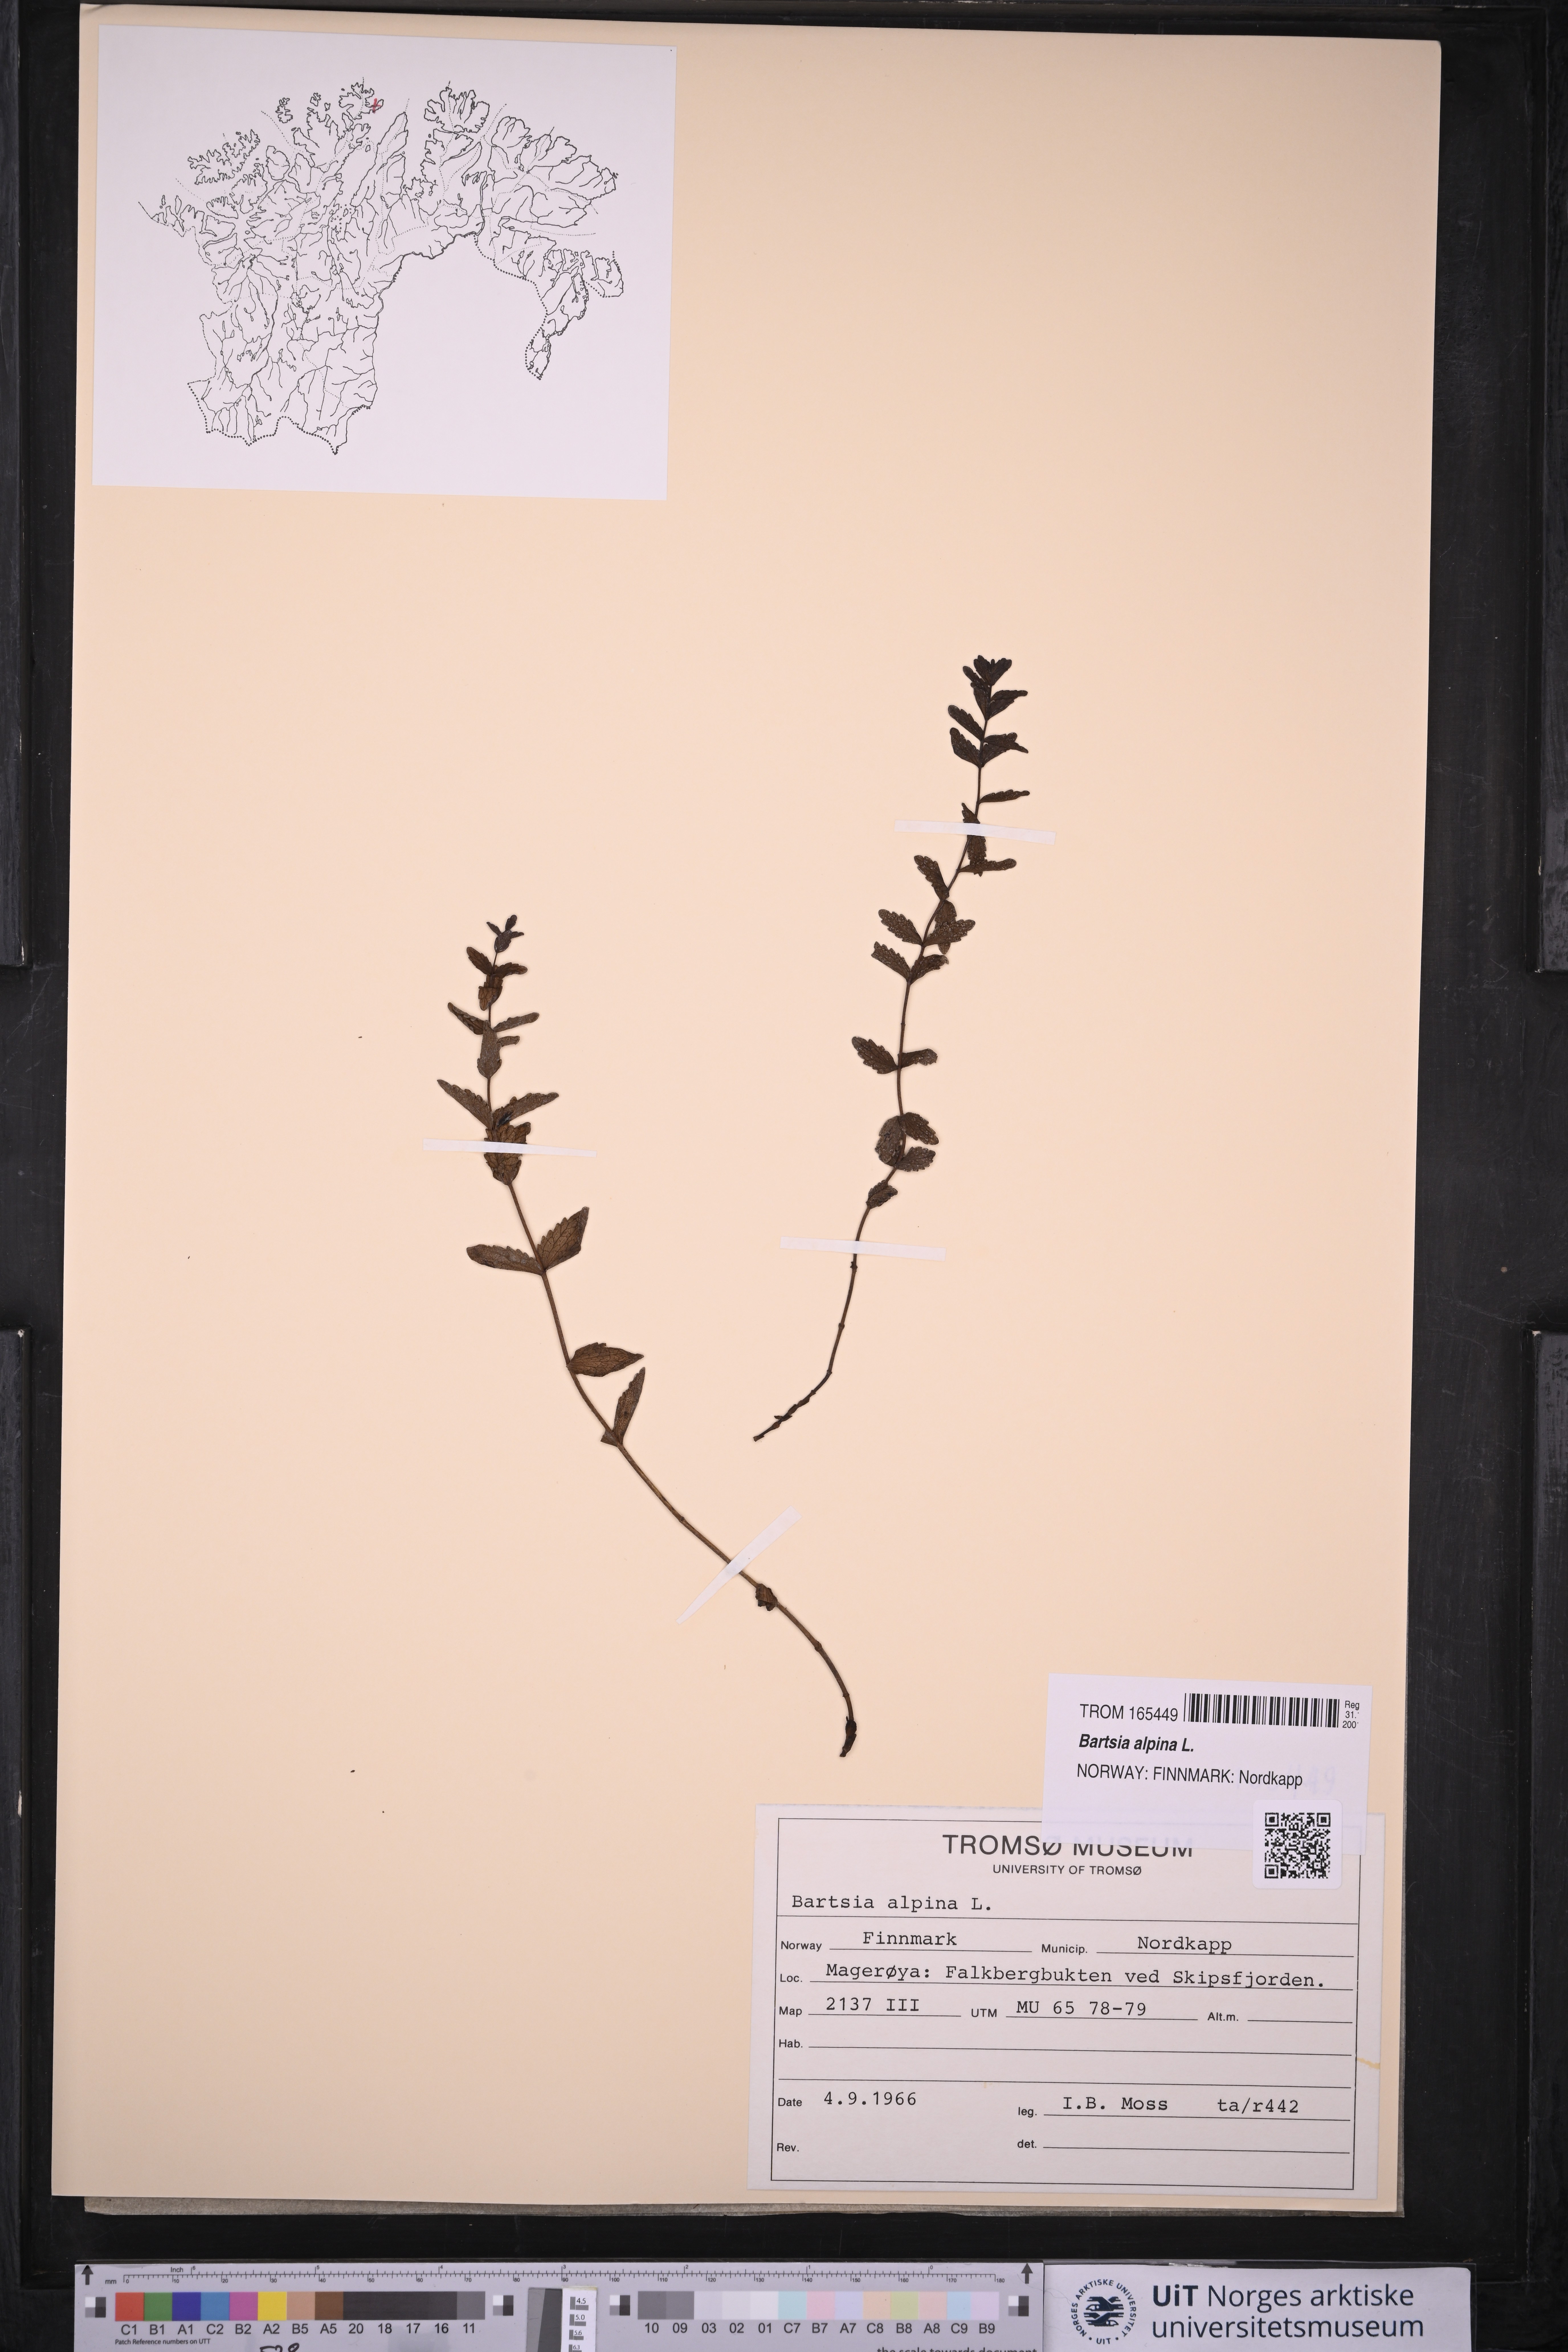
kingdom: Plantae
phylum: Tracheophyta
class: Magnoliopsida
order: Lamiales
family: Orobanchaceae
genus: Bartsia
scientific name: Bartsia alpina
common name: Alpine bartsia
